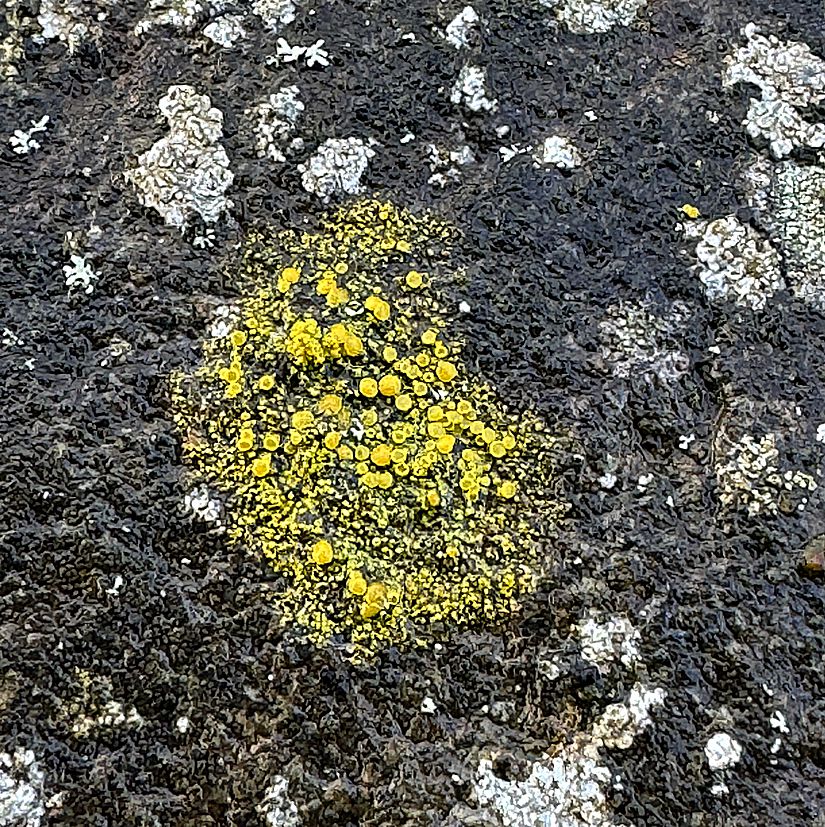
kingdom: Fungi
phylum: Ascomycota
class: Candelariomycetes
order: Candelariales
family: Candelariaceae
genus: Candelariella
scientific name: Candelariella vitellina
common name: almindelig æggeblommelav
